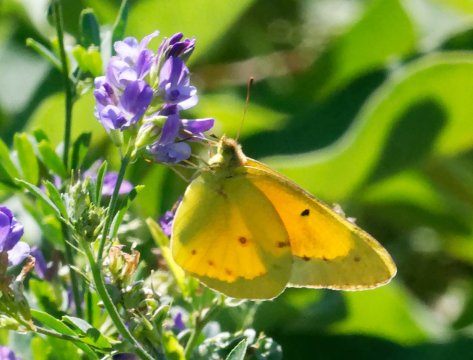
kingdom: Animalia
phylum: Arthropoda
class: Insecta
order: Lepidoptera
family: Pieridae
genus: Colias
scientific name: Colias eurytheme
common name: Orange Sulphur
